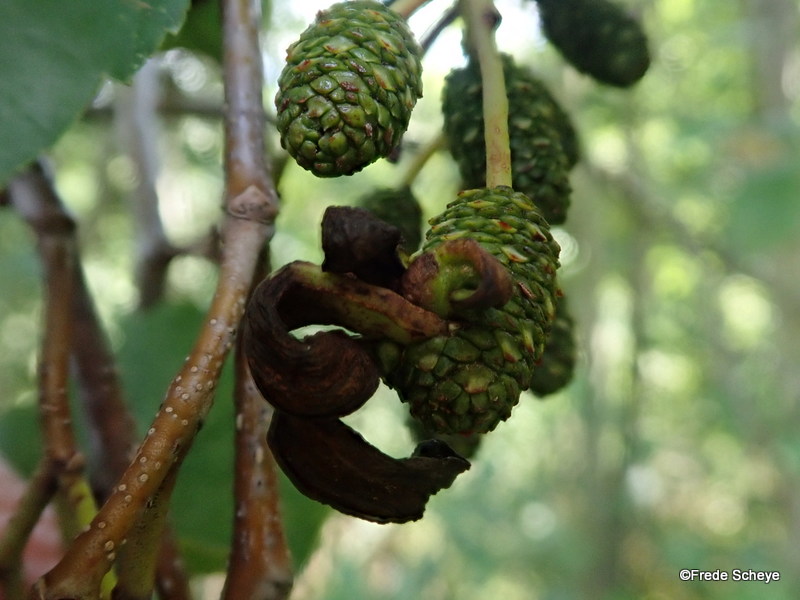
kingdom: Fungi
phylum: Ascomycota
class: Taphrinomycetes
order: Taphrinales
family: Taphrinaceae
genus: Taphrina
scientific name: Taphrina alni
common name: Alder tongue
